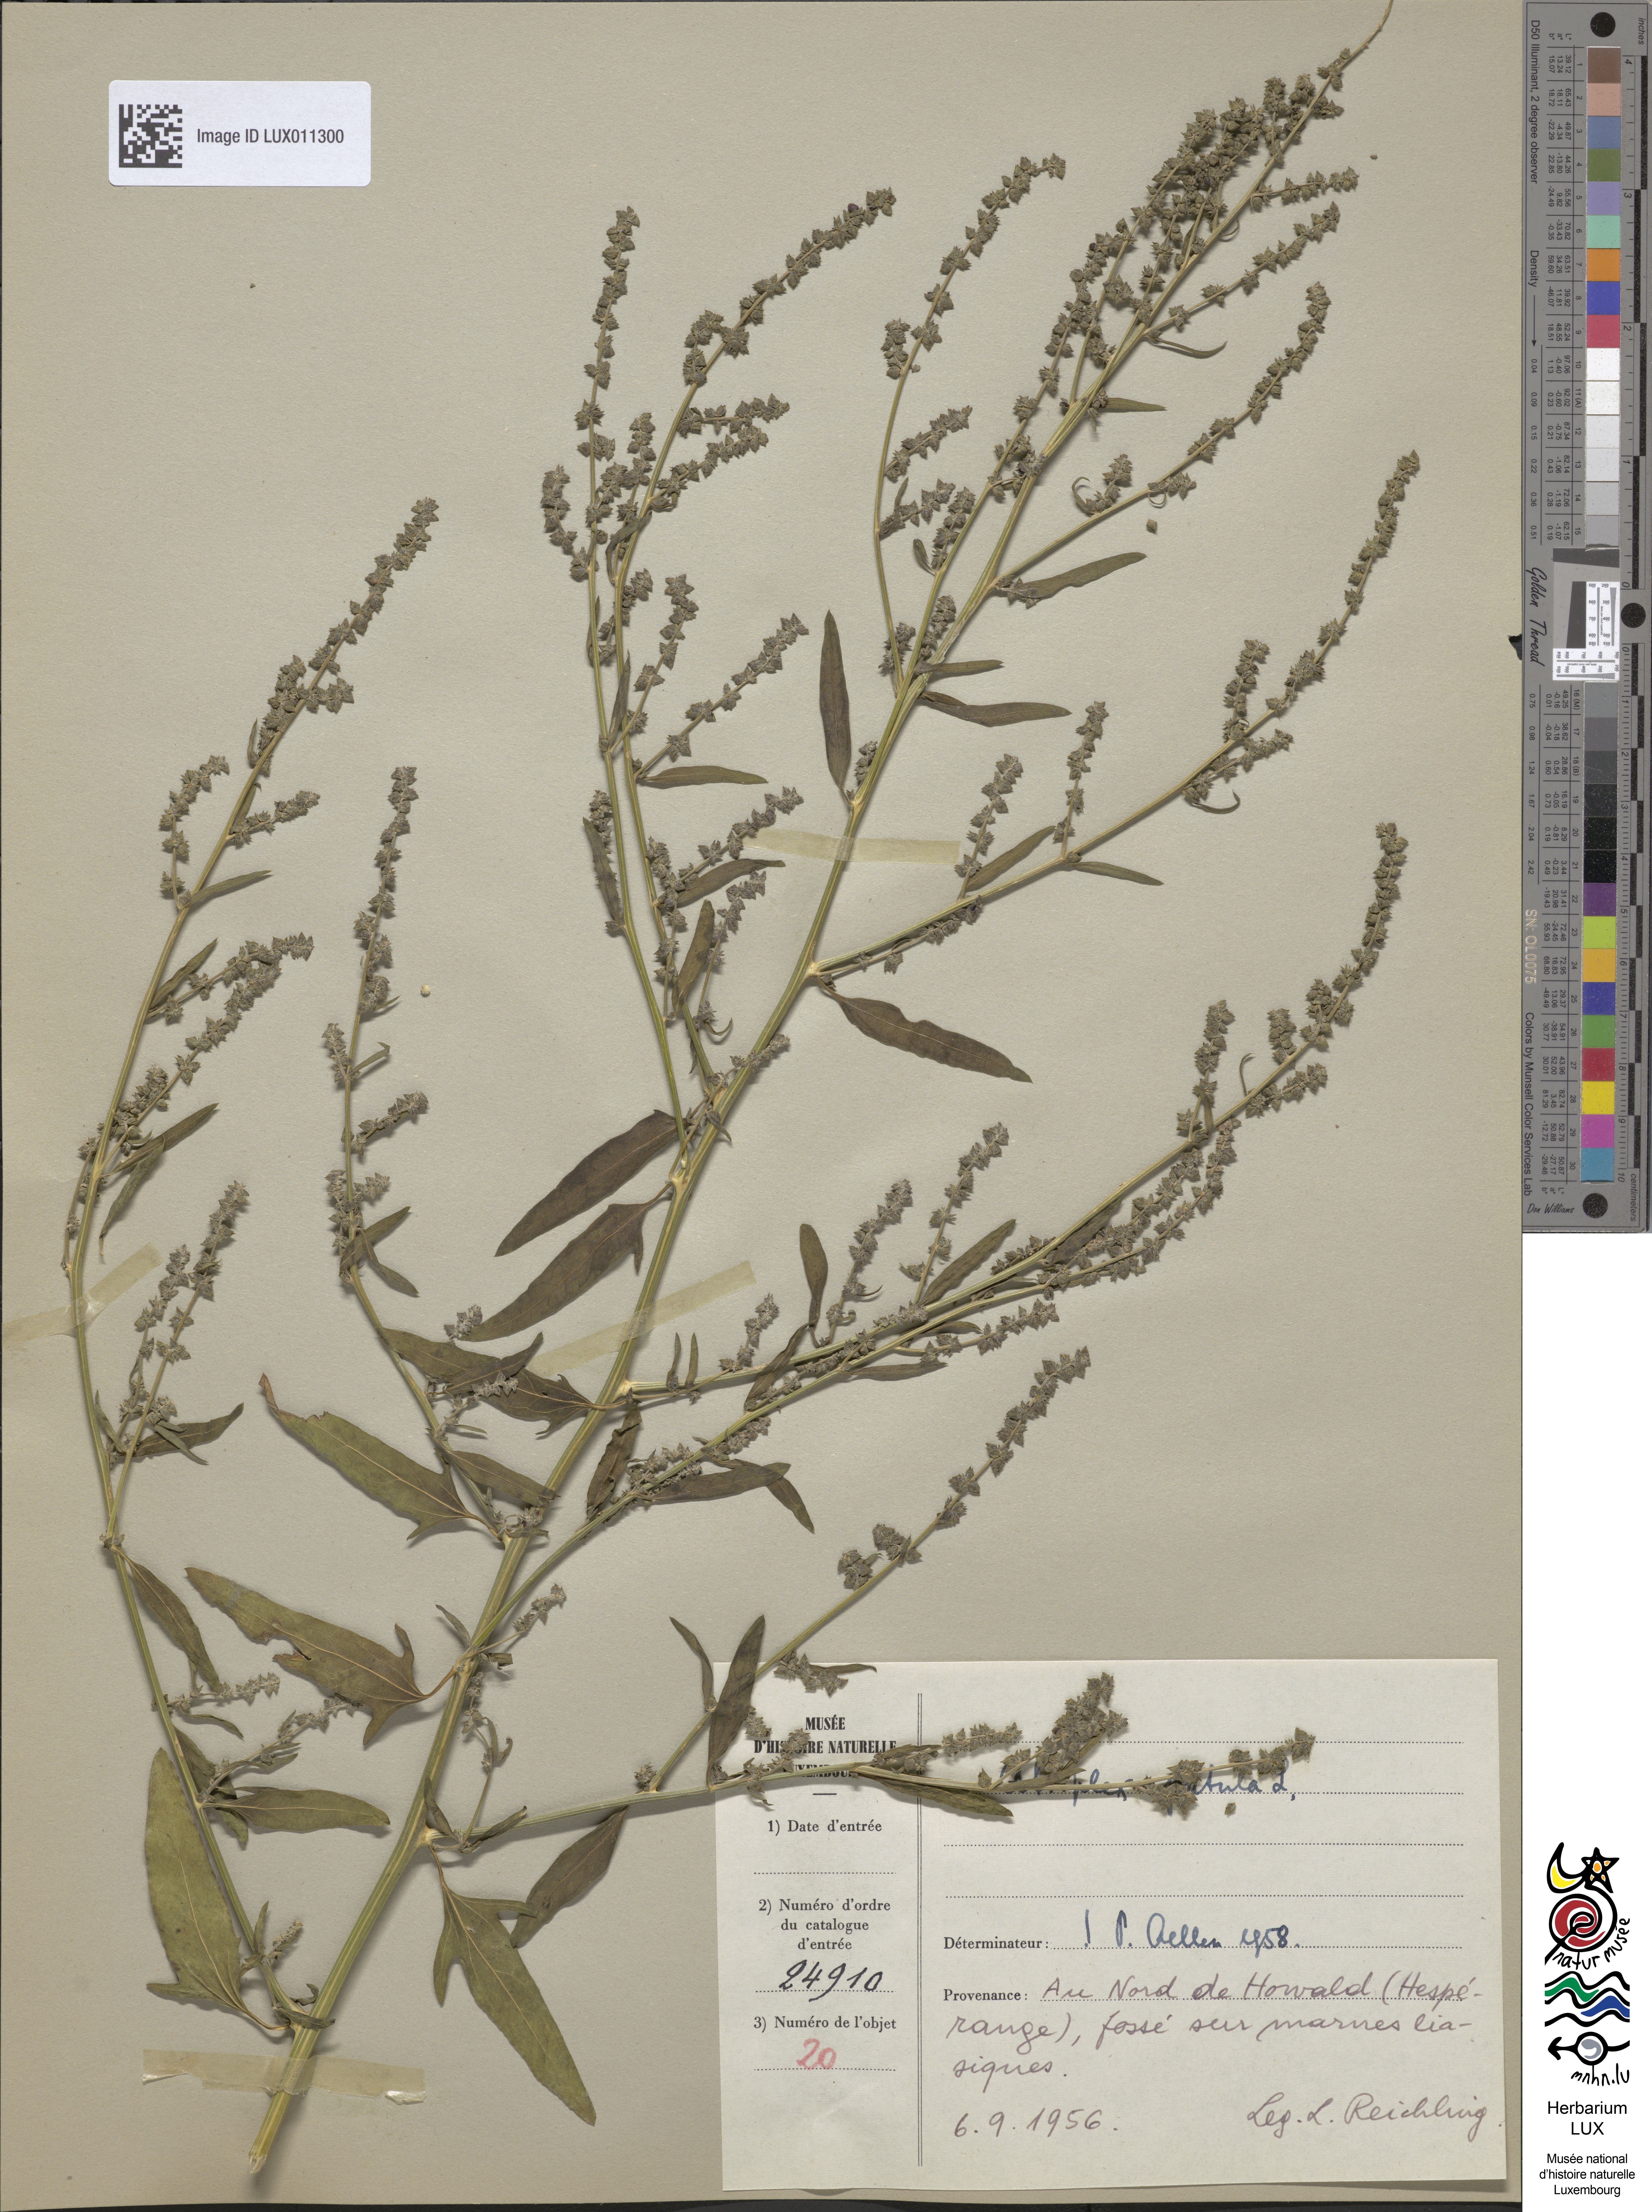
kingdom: Plantae
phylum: Tracheophyta
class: Magnoliopsida
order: Caryophyllales
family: Amaranthaceae
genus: Atriplex
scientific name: Atriplex patula
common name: Common orache
